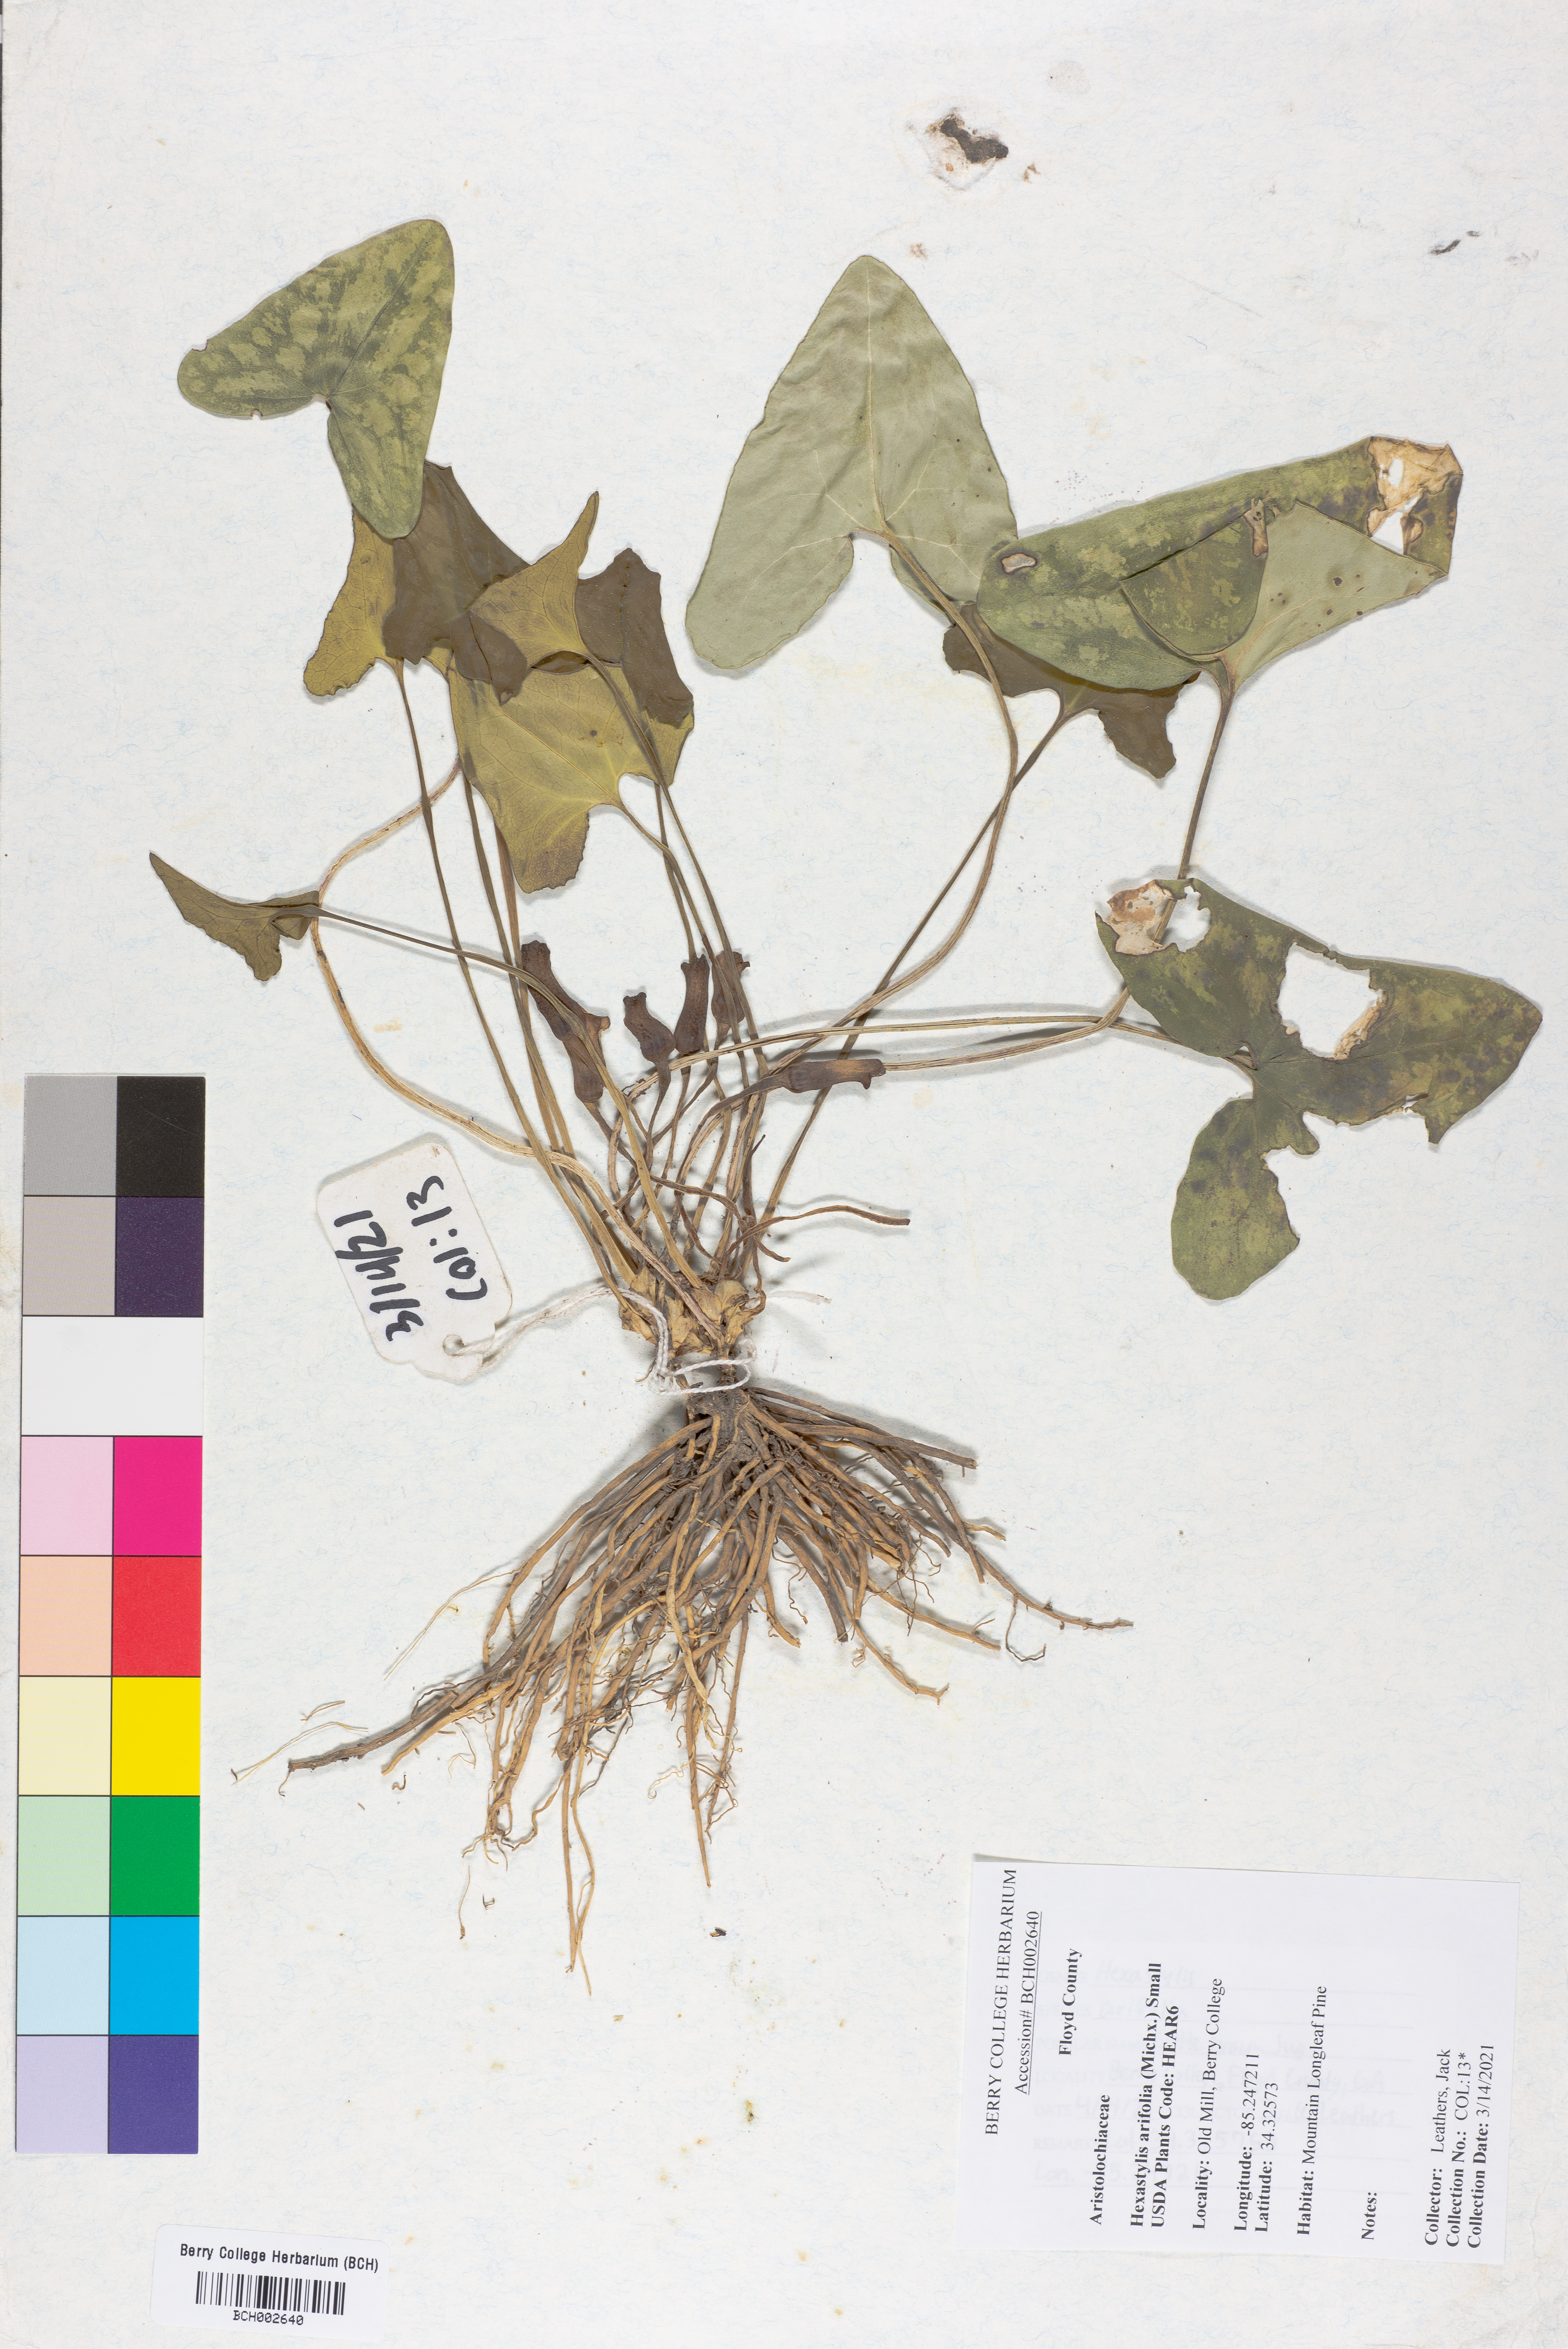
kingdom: Plantae
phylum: Tracheophyta
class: Magnoliopsida
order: Piperales
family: Aristolochiaceae
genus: Hexastylis
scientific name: Hexastylis arifolia
